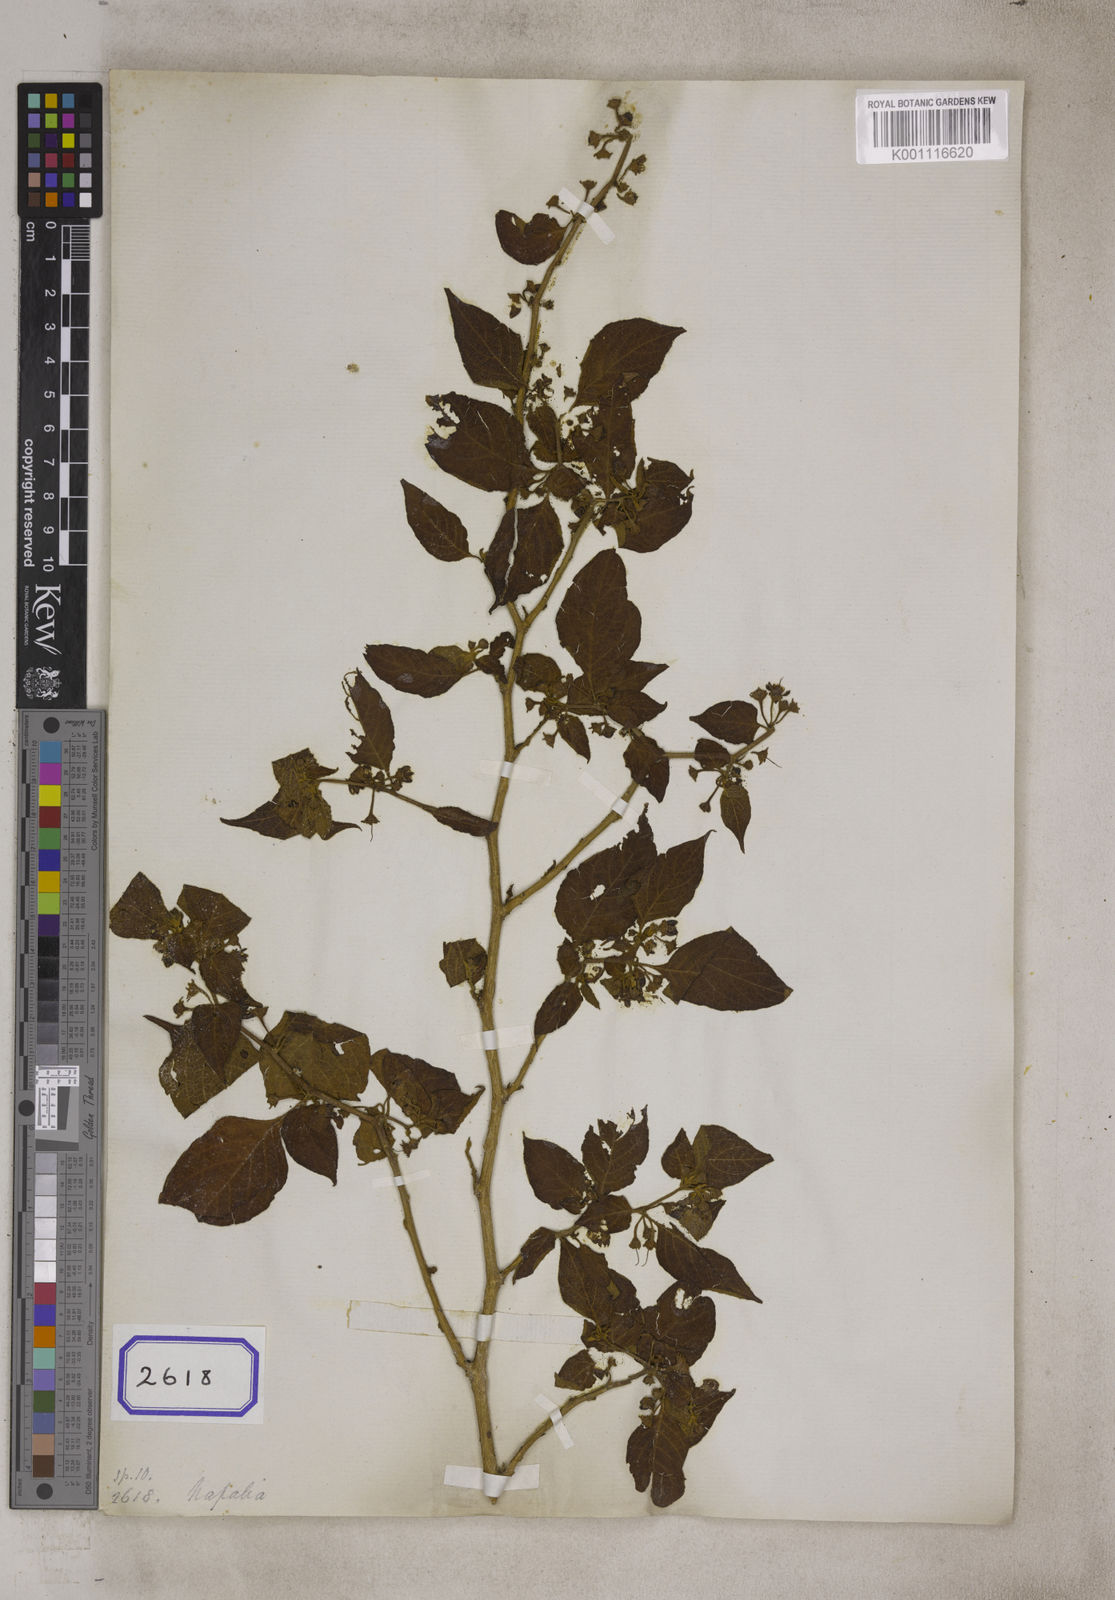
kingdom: Plantae
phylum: Tracheophyta
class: Magnoliopsida
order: Solanales
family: Solanaceae
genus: Lycianthes
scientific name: Lycianthes crassipetalum
